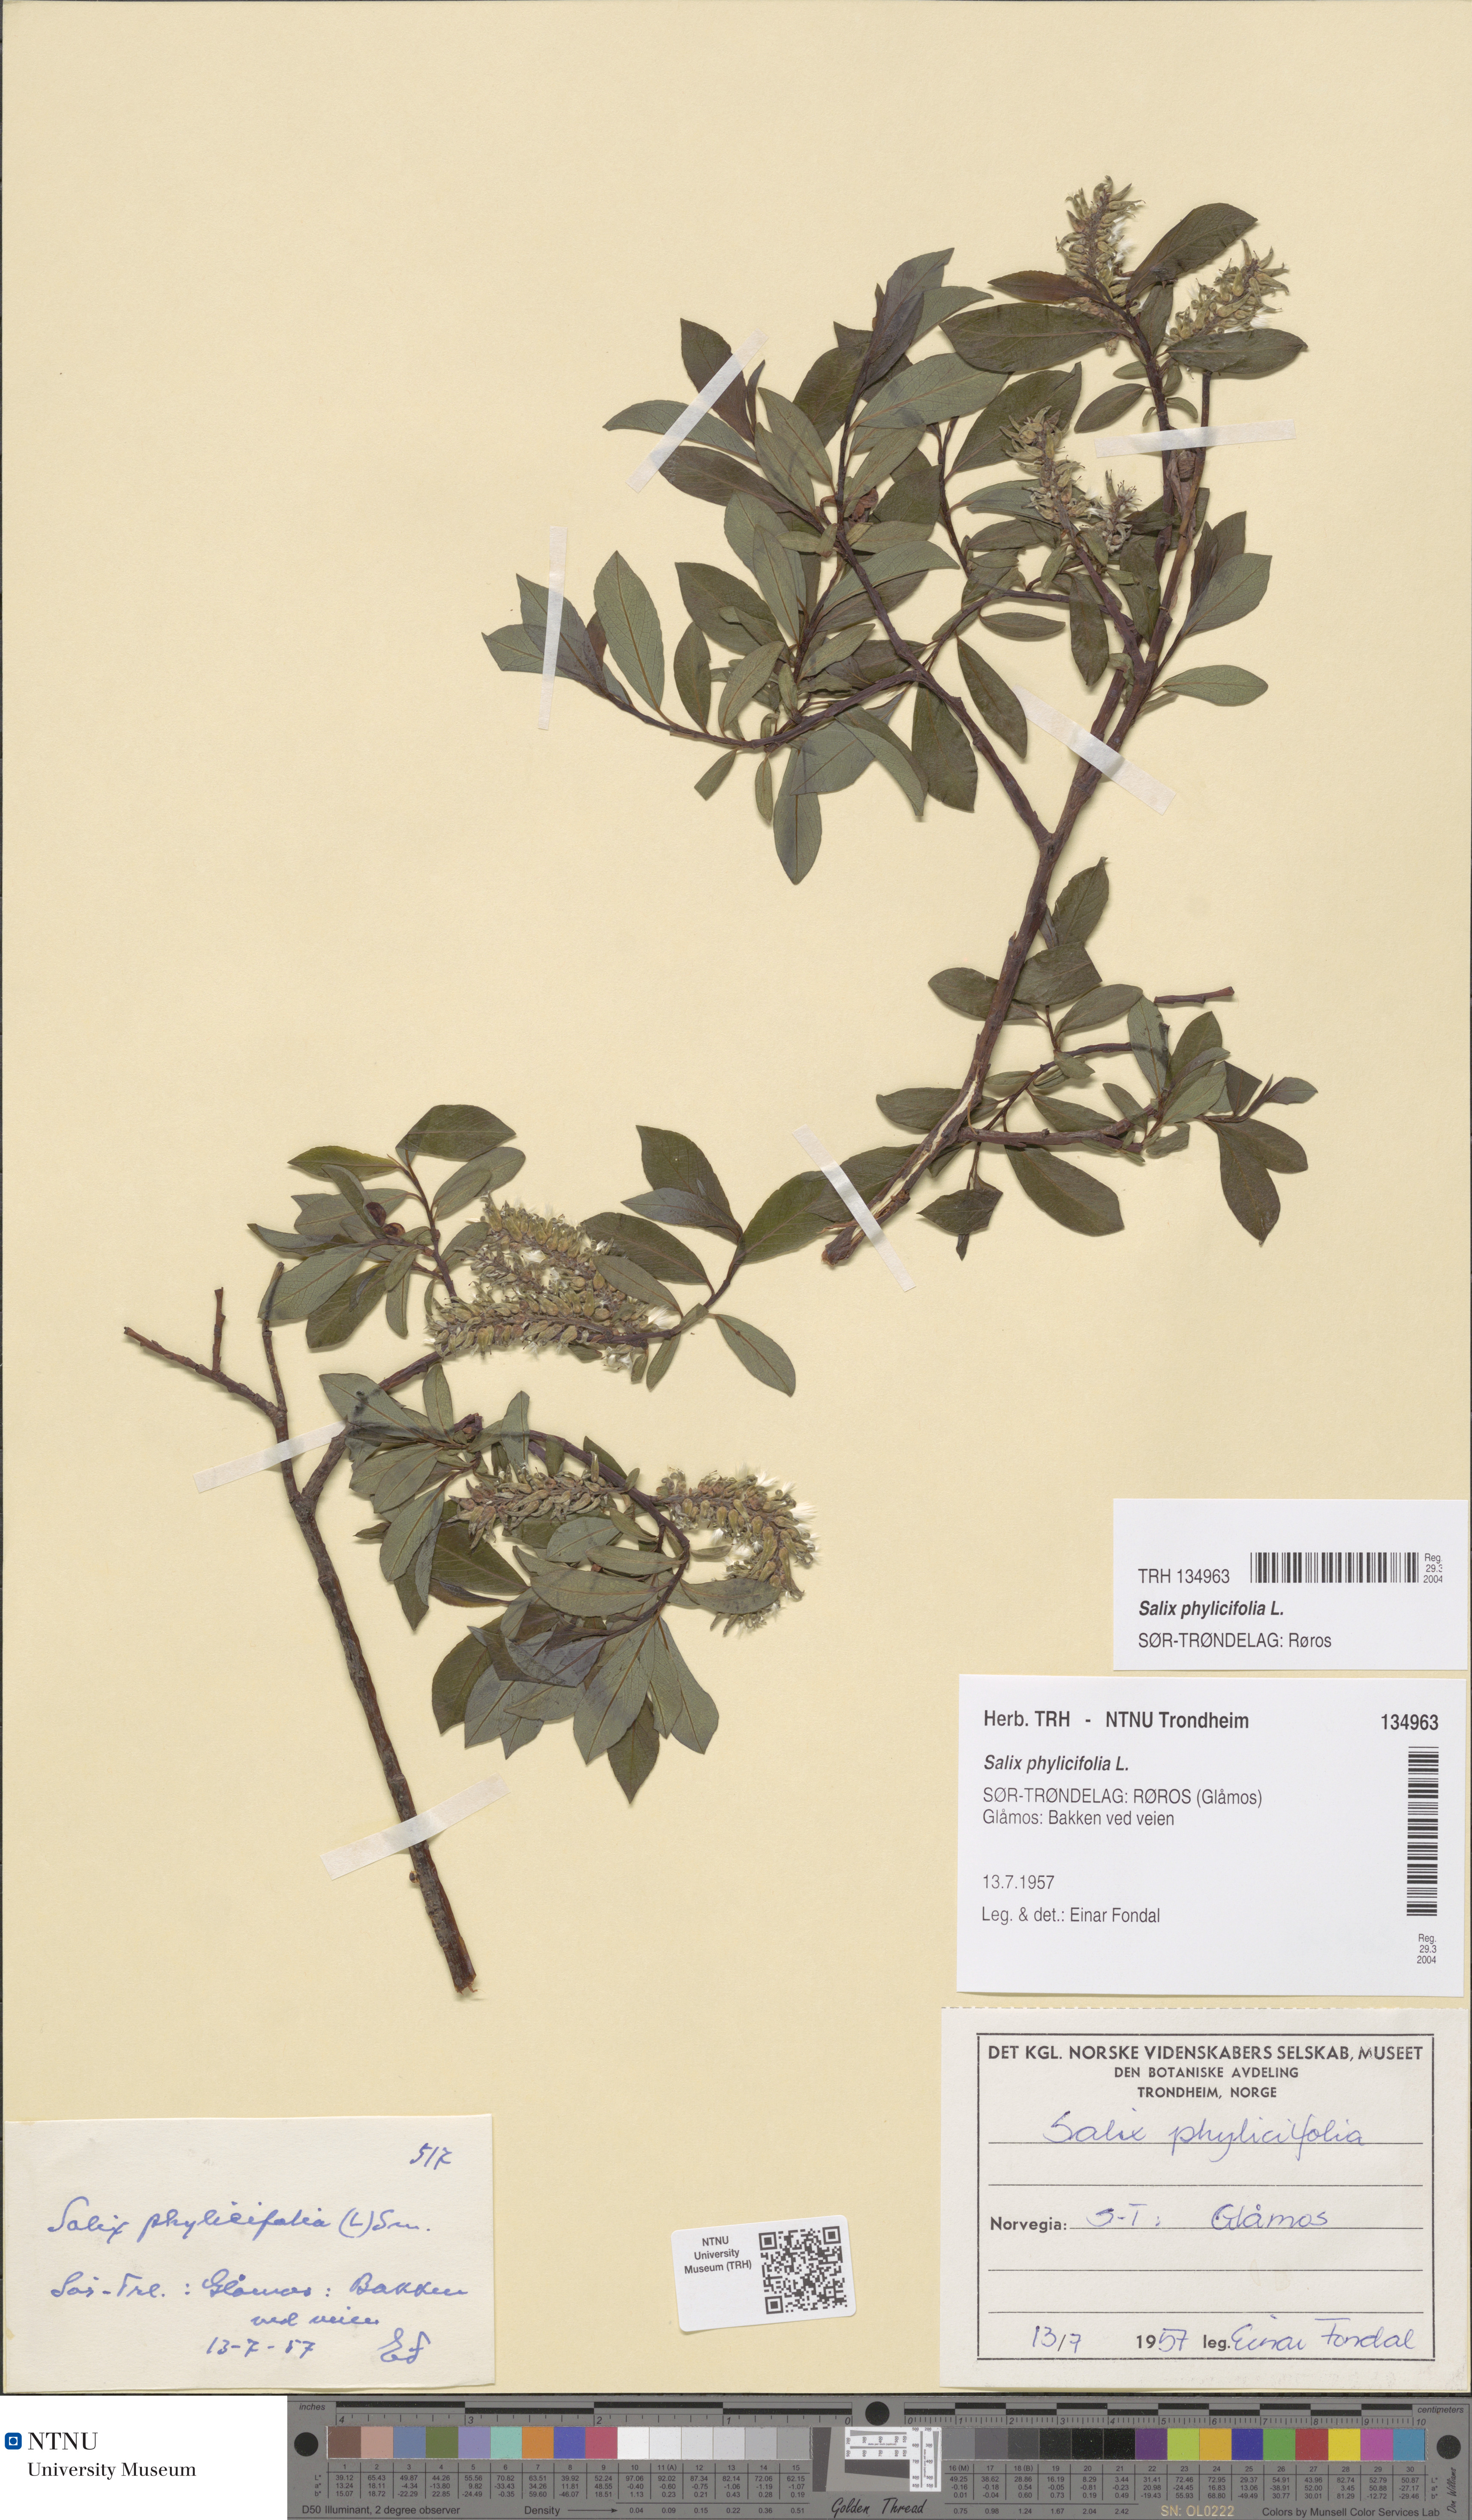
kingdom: Plantae
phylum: Tracheophyta
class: Magnoliopsida
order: Malpighiales
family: Salicaceae
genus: Salix
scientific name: Salix phylicifolia
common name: Tea-leaved willow
